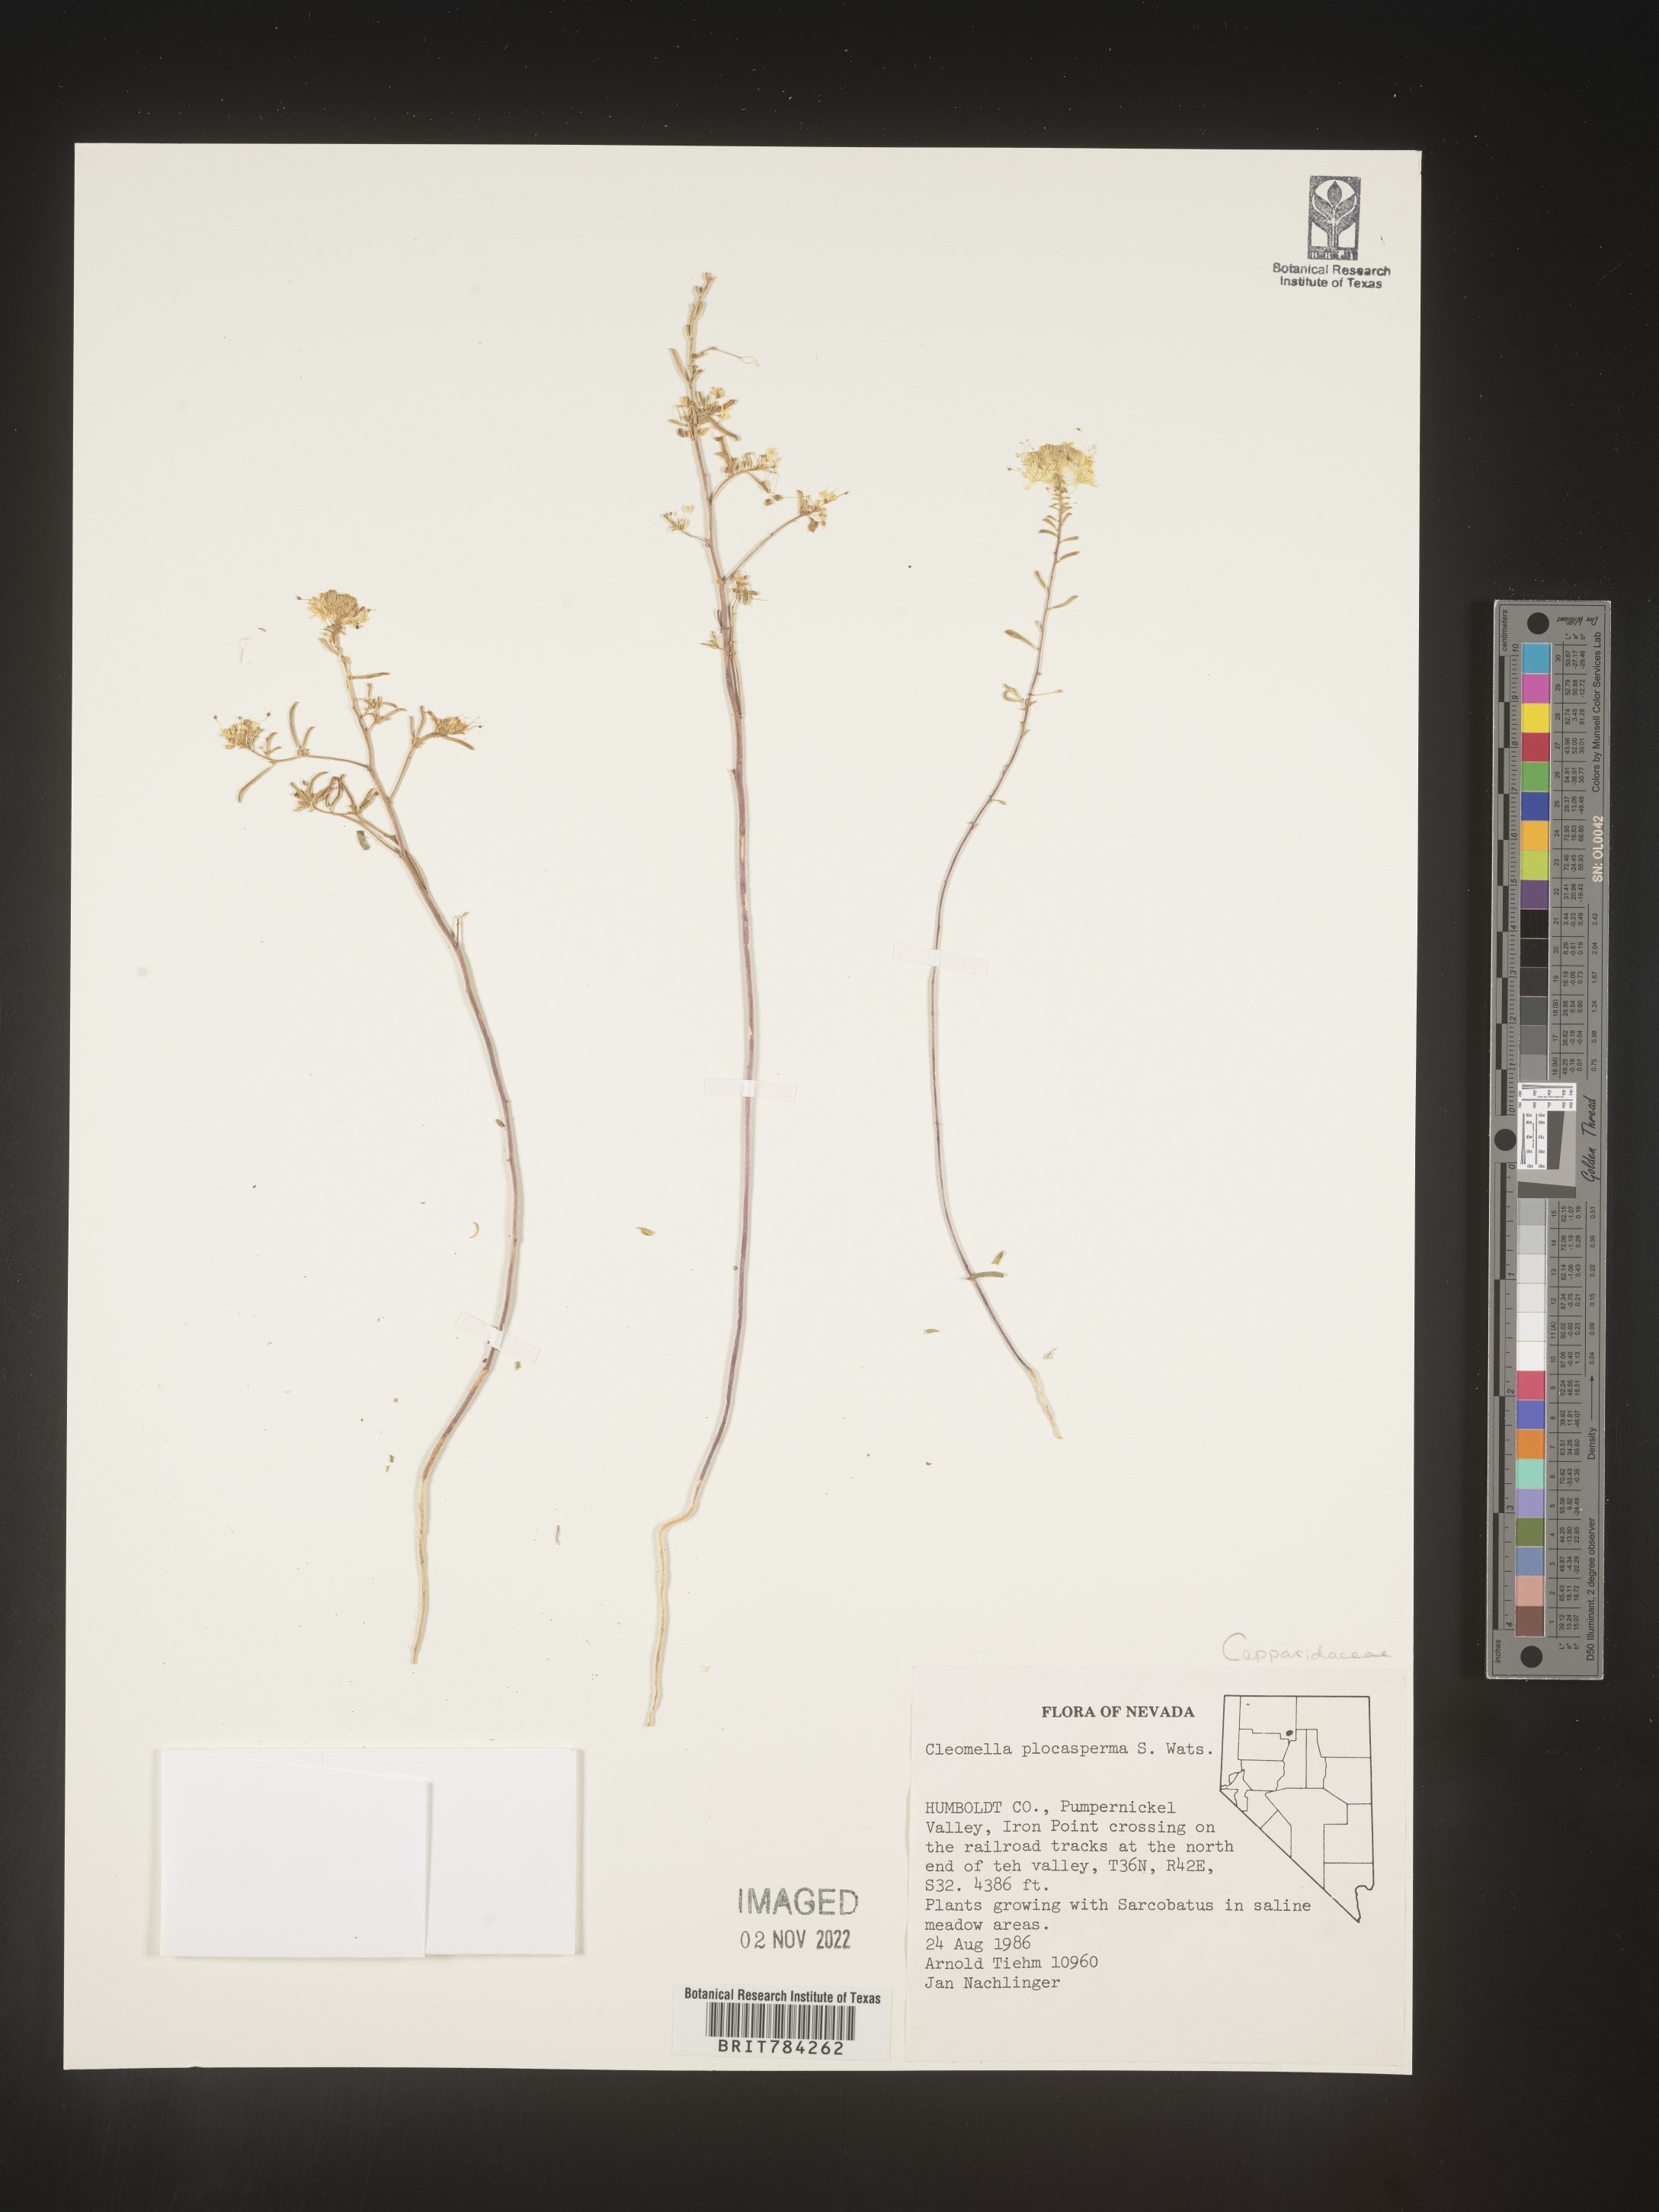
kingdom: Plantae
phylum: Tracheophyta
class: Magnoliopsida
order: Brassicales
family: Cleomaceae
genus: Cleomella
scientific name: Cleomella
